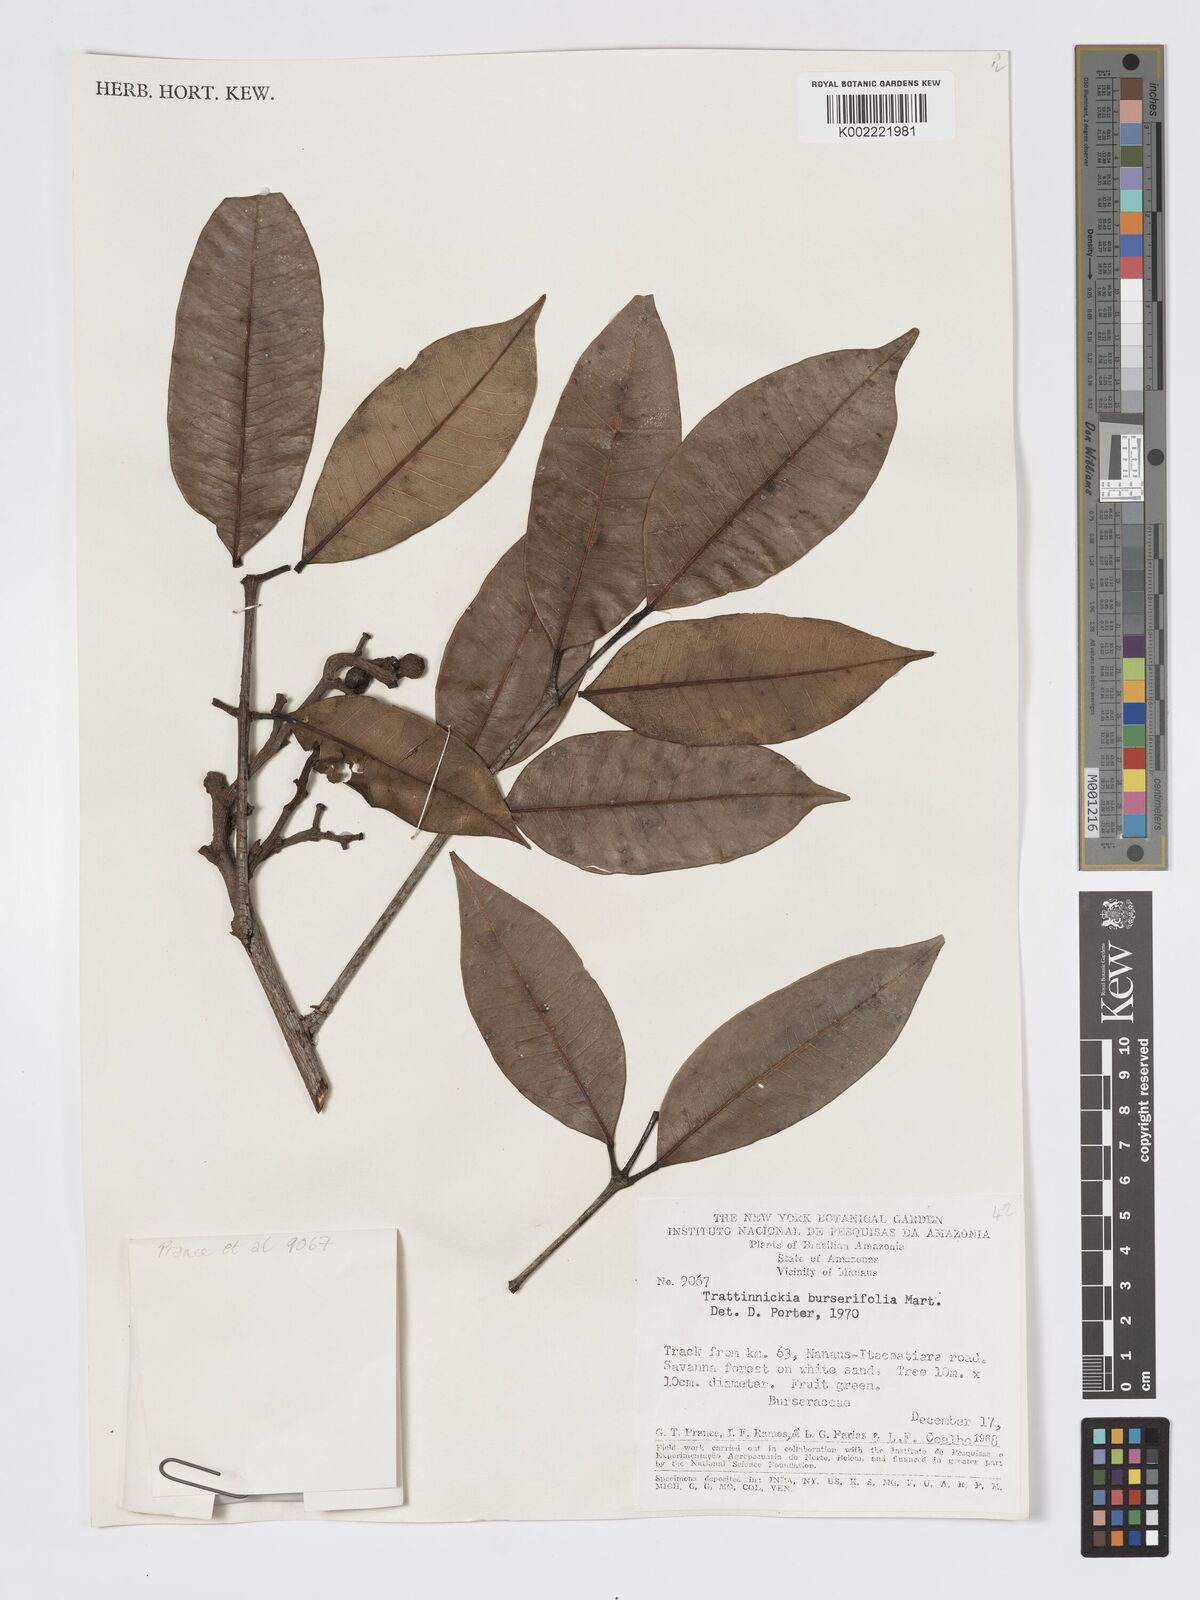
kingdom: Plantae
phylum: Tracheophyta
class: Magnoliopsida
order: Sapindales
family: Burseraceae
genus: Trattinnickia
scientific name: Trattinnickia burserifolia
